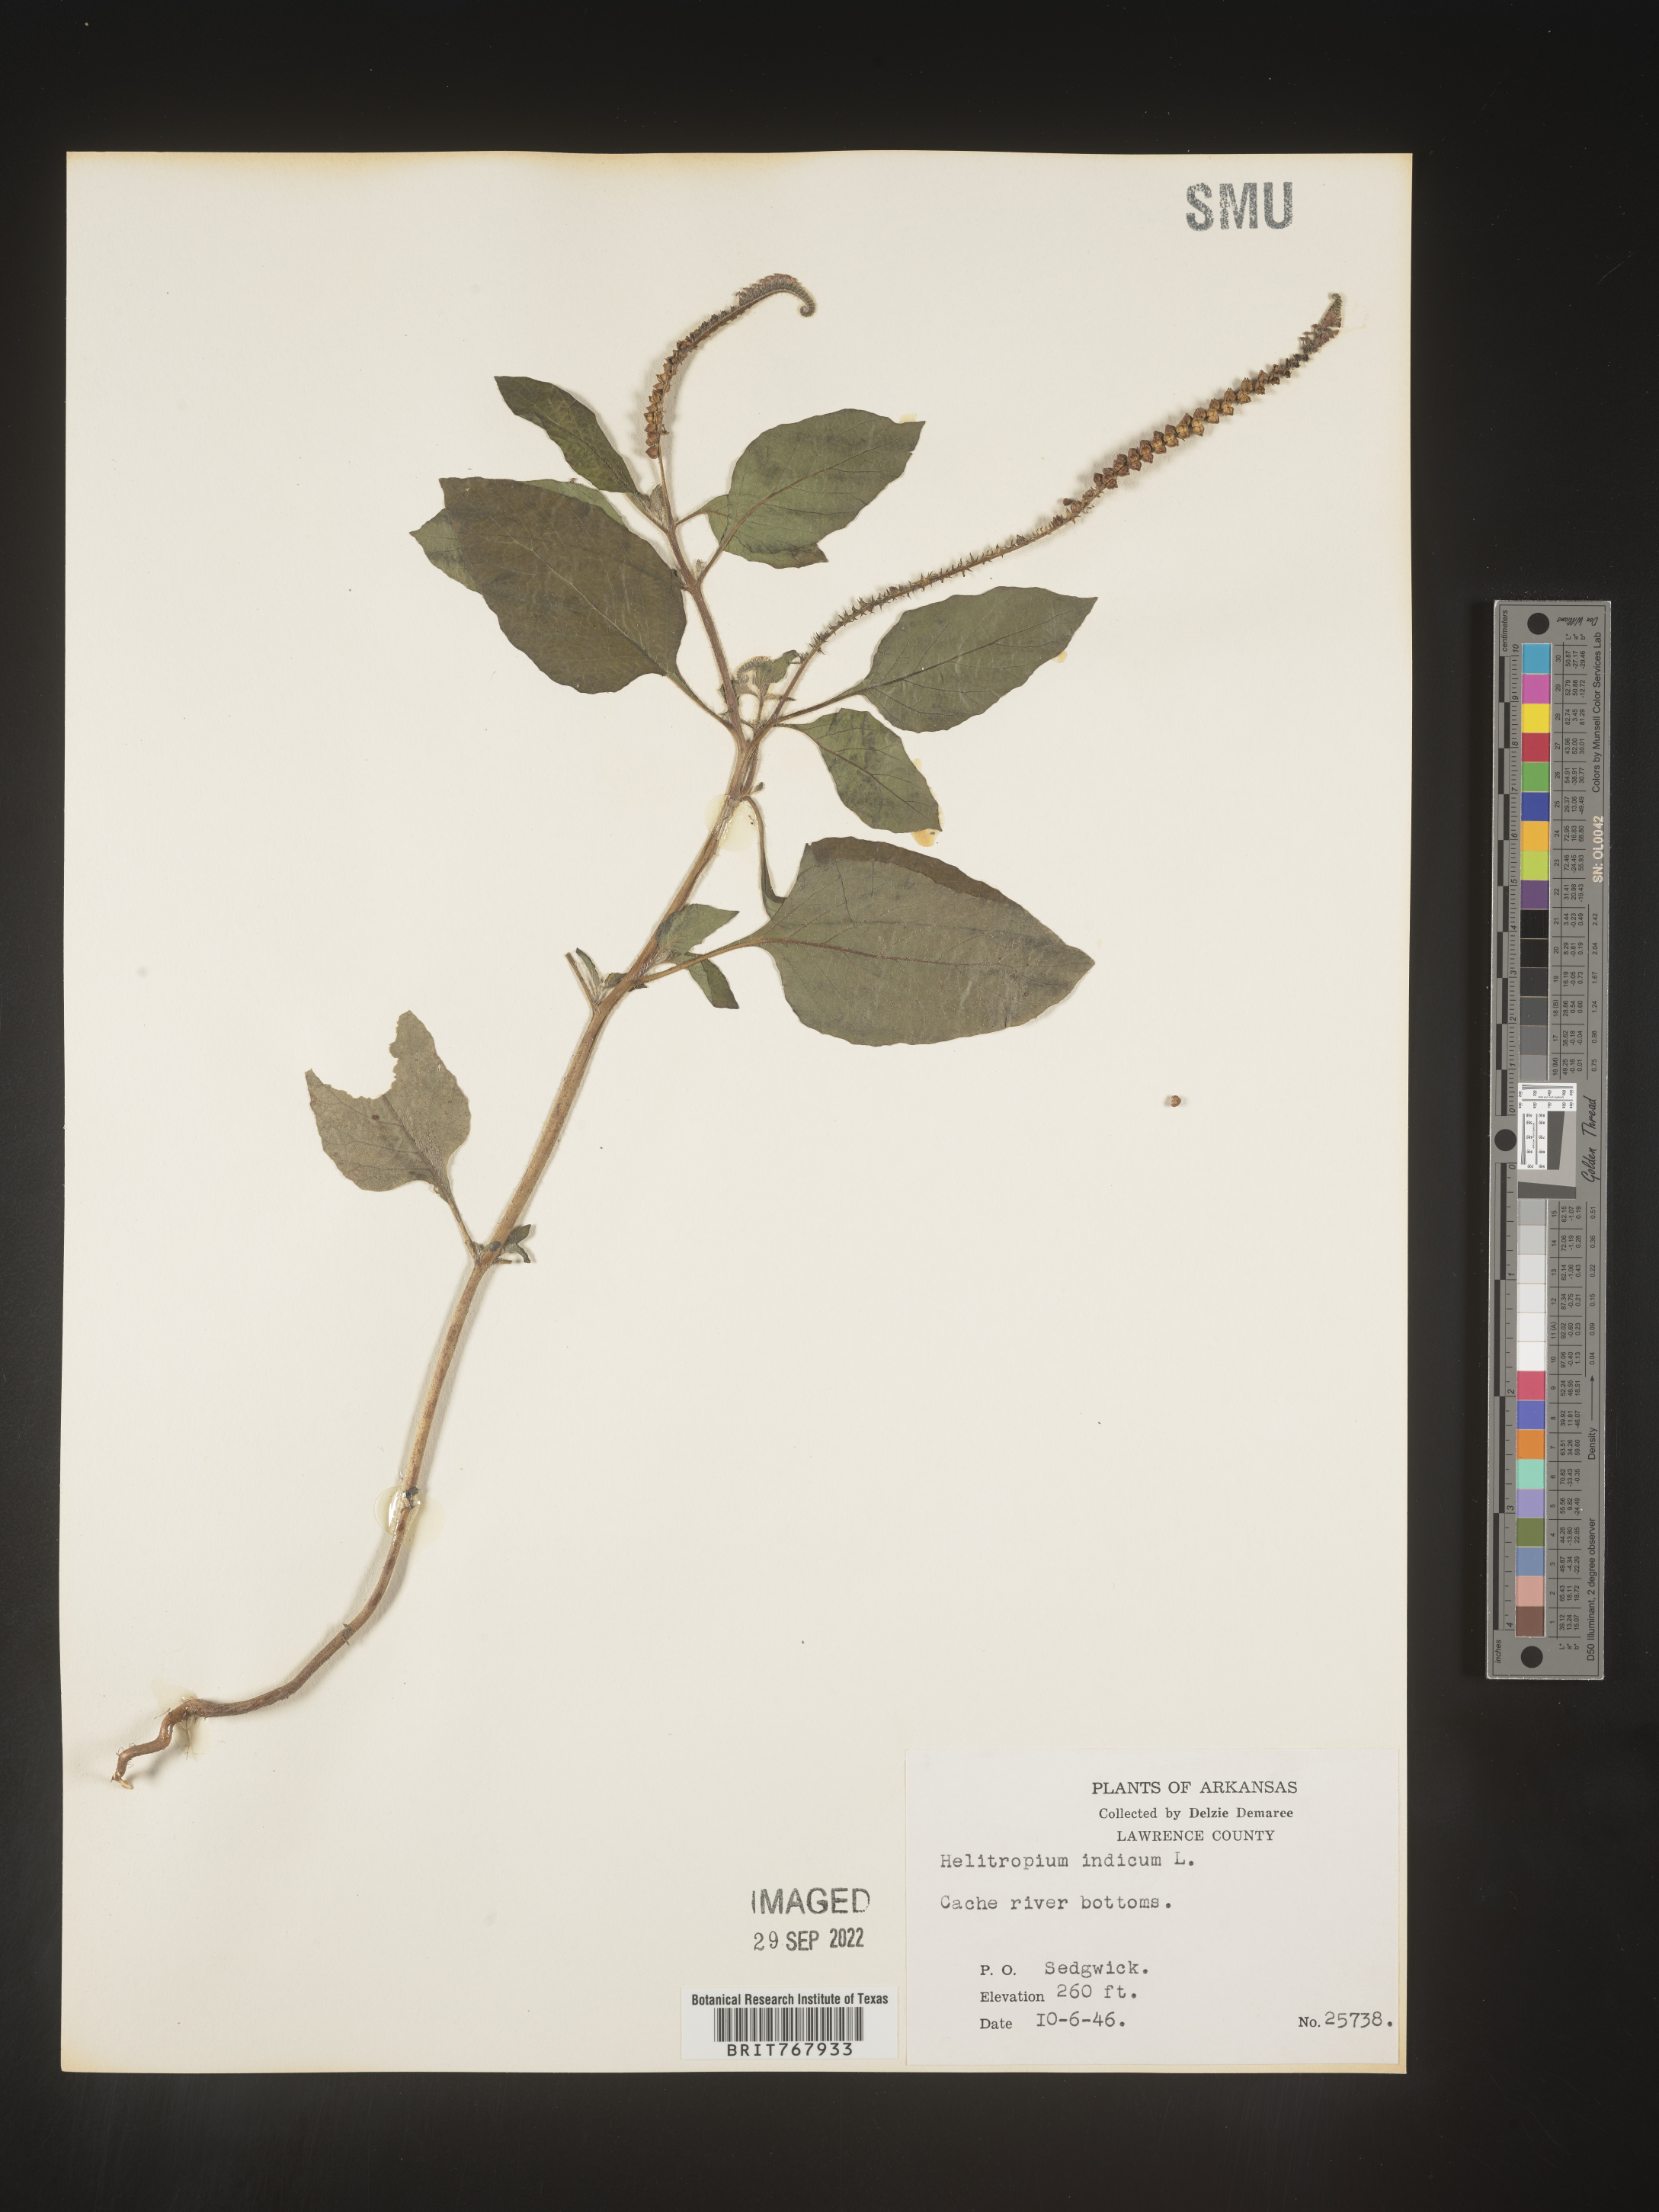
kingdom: Plantae
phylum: Tracheophyta
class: Magnoliopsida
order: Boraginales
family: Heliotropiaceae
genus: Heliotropium
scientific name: Heliotropium indicum
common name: Indian heliotrope
